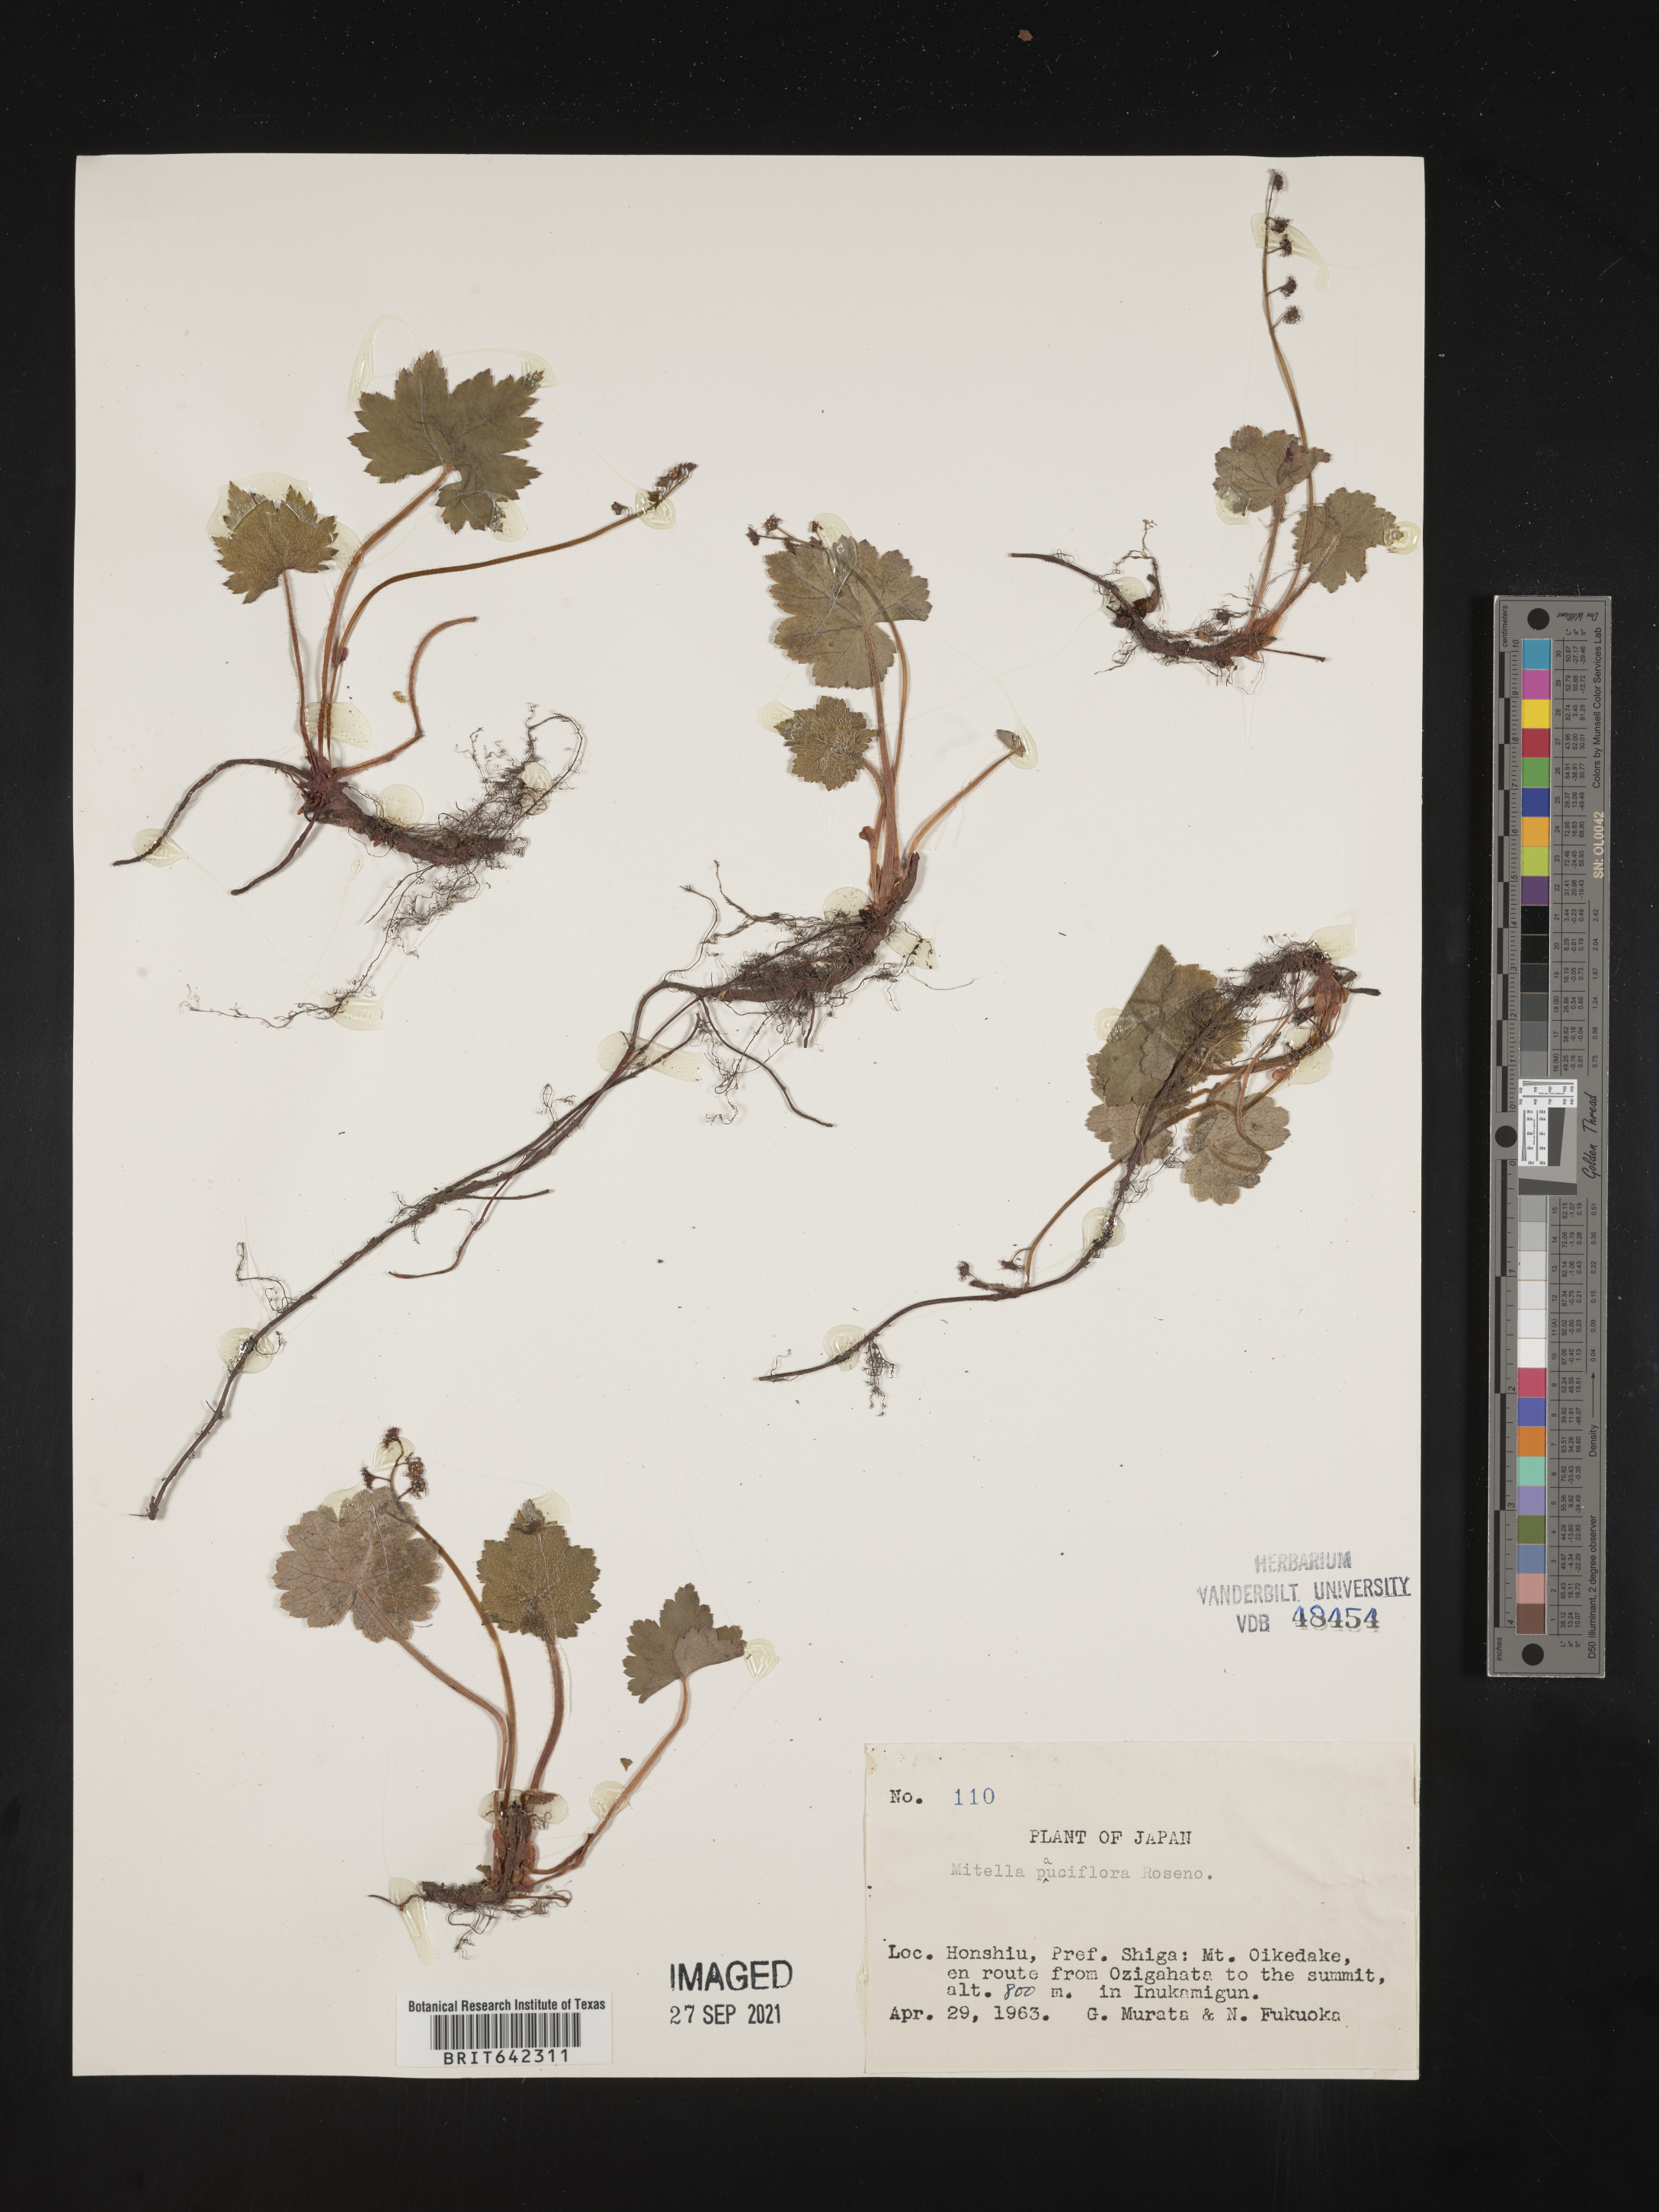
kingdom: Plantae
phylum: Tracheophyta
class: Magnoliopsida
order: Saxifragales
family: Saxifragaceae
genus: Mitella
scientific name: Mitella
